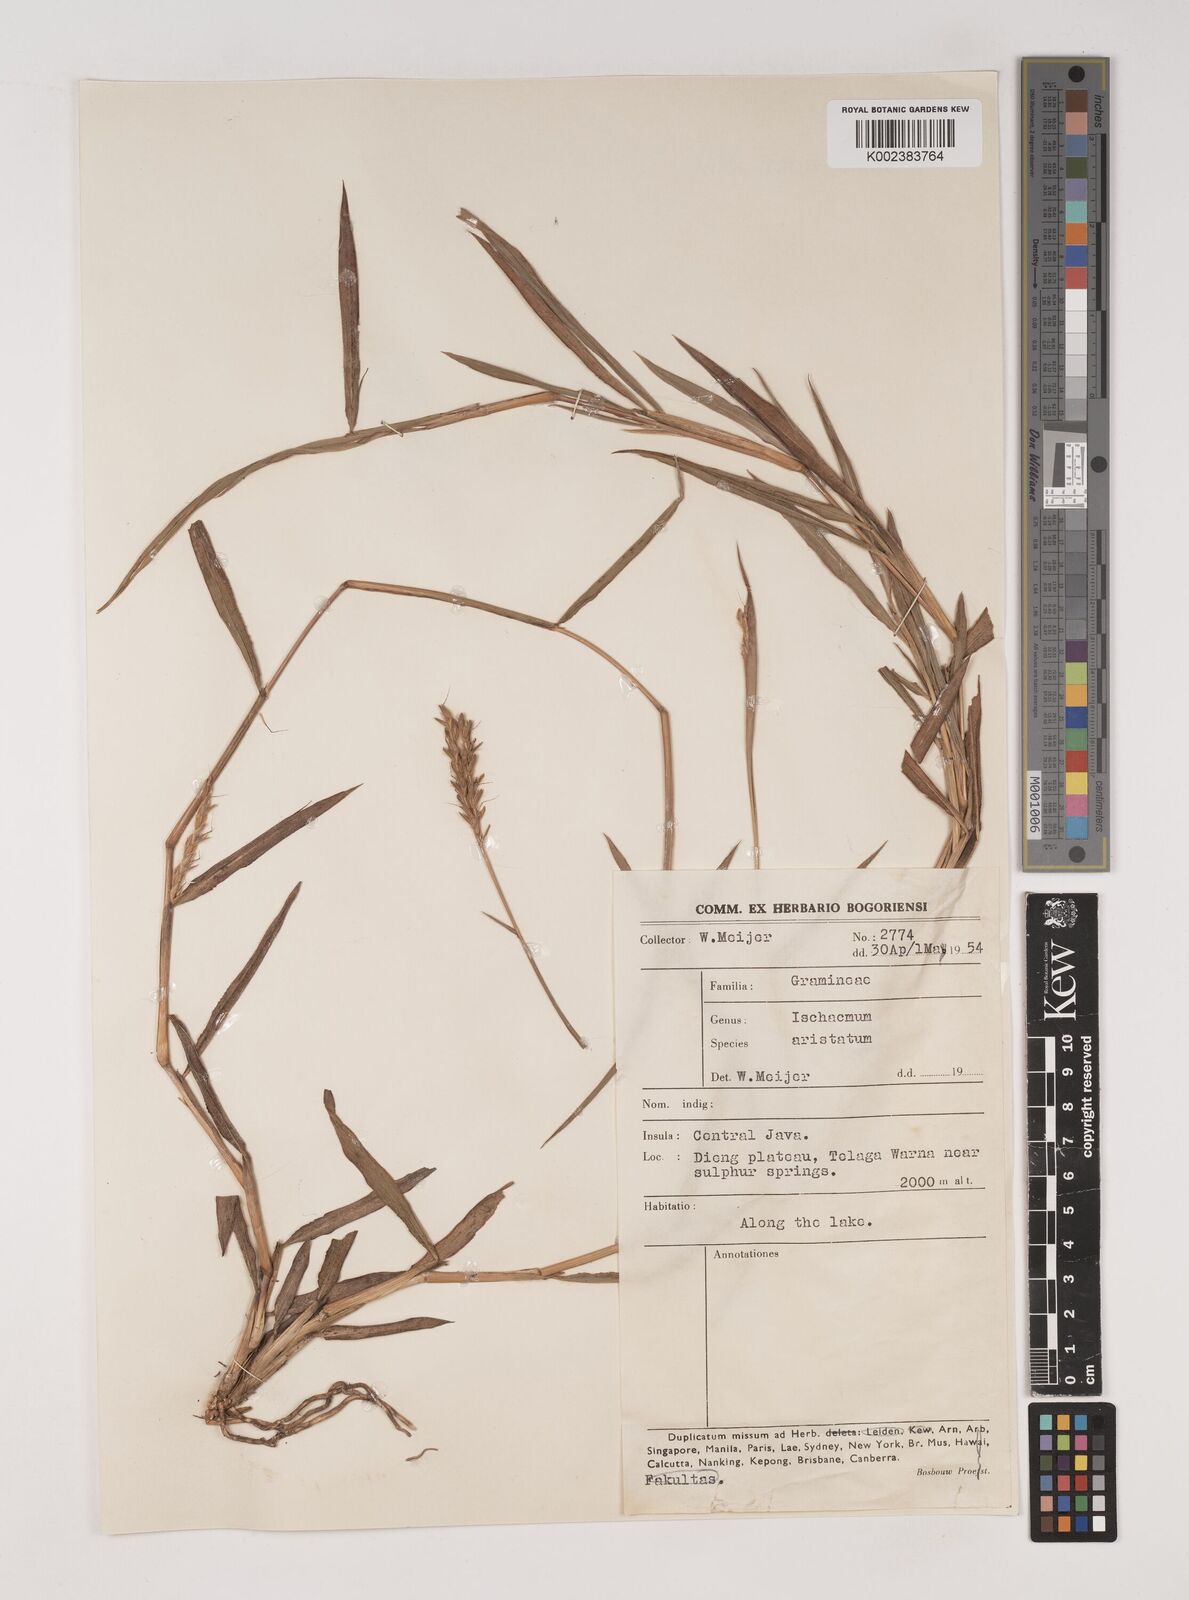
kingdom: Plantae
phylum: Tracheophyta
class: Liliopsida
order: Poales
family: Poaceae
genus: Ischaemum
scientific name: Ischaemum barbatum
